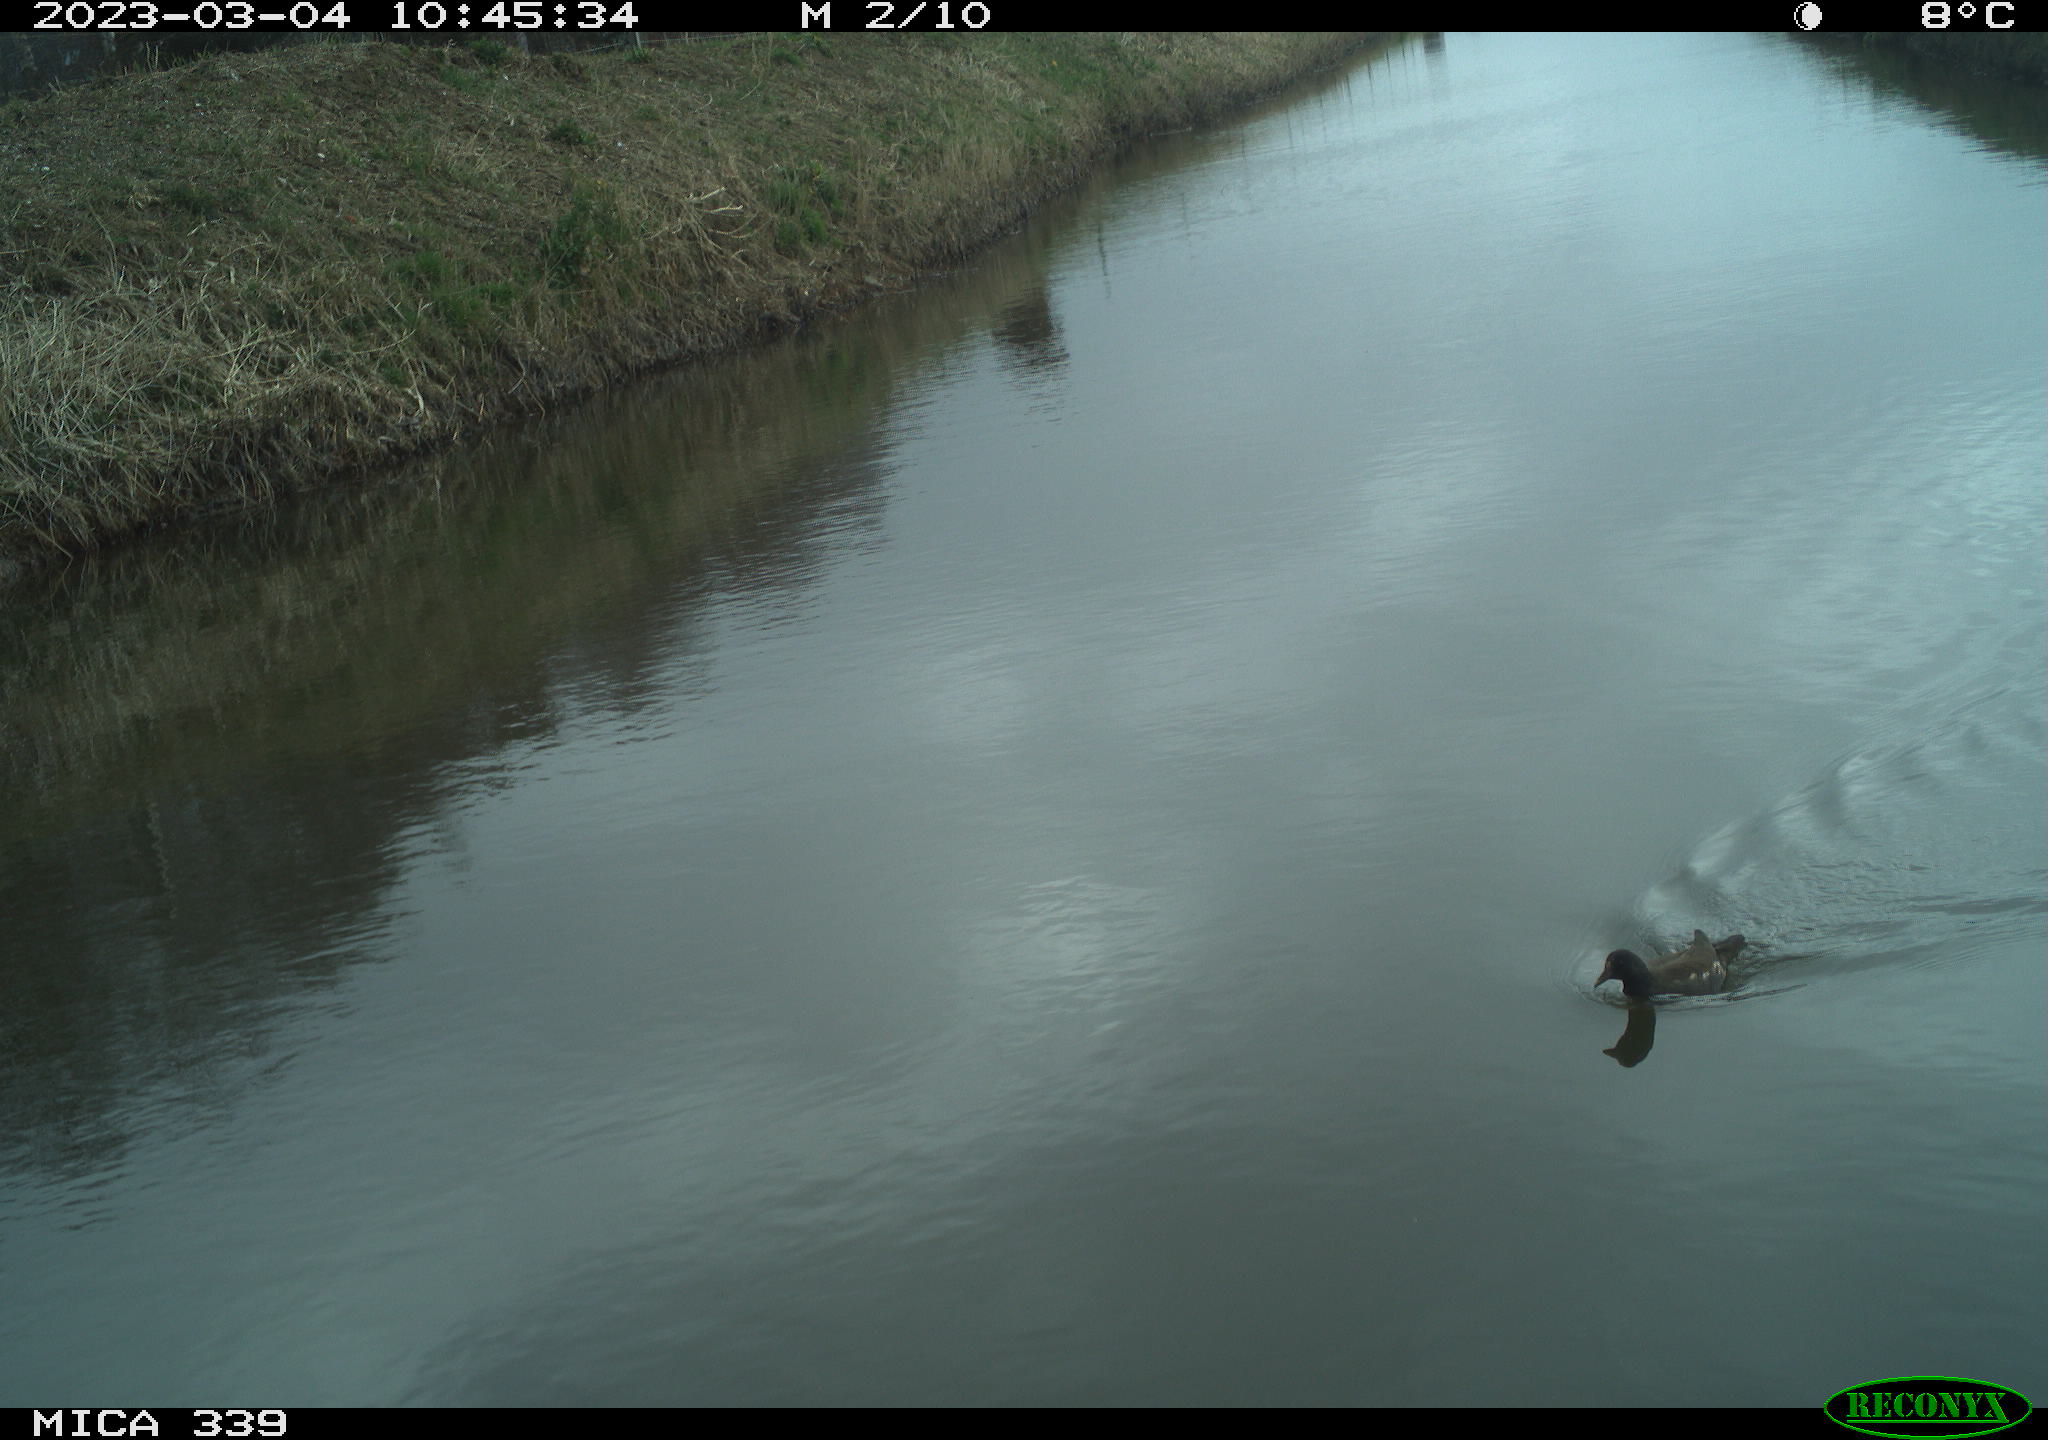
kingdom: Animalia
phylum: Chordata
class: Aves
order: Gruiformes
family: Rallidae
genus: Gallinula
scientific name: Gallinula chloropus
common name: Common moorhen
